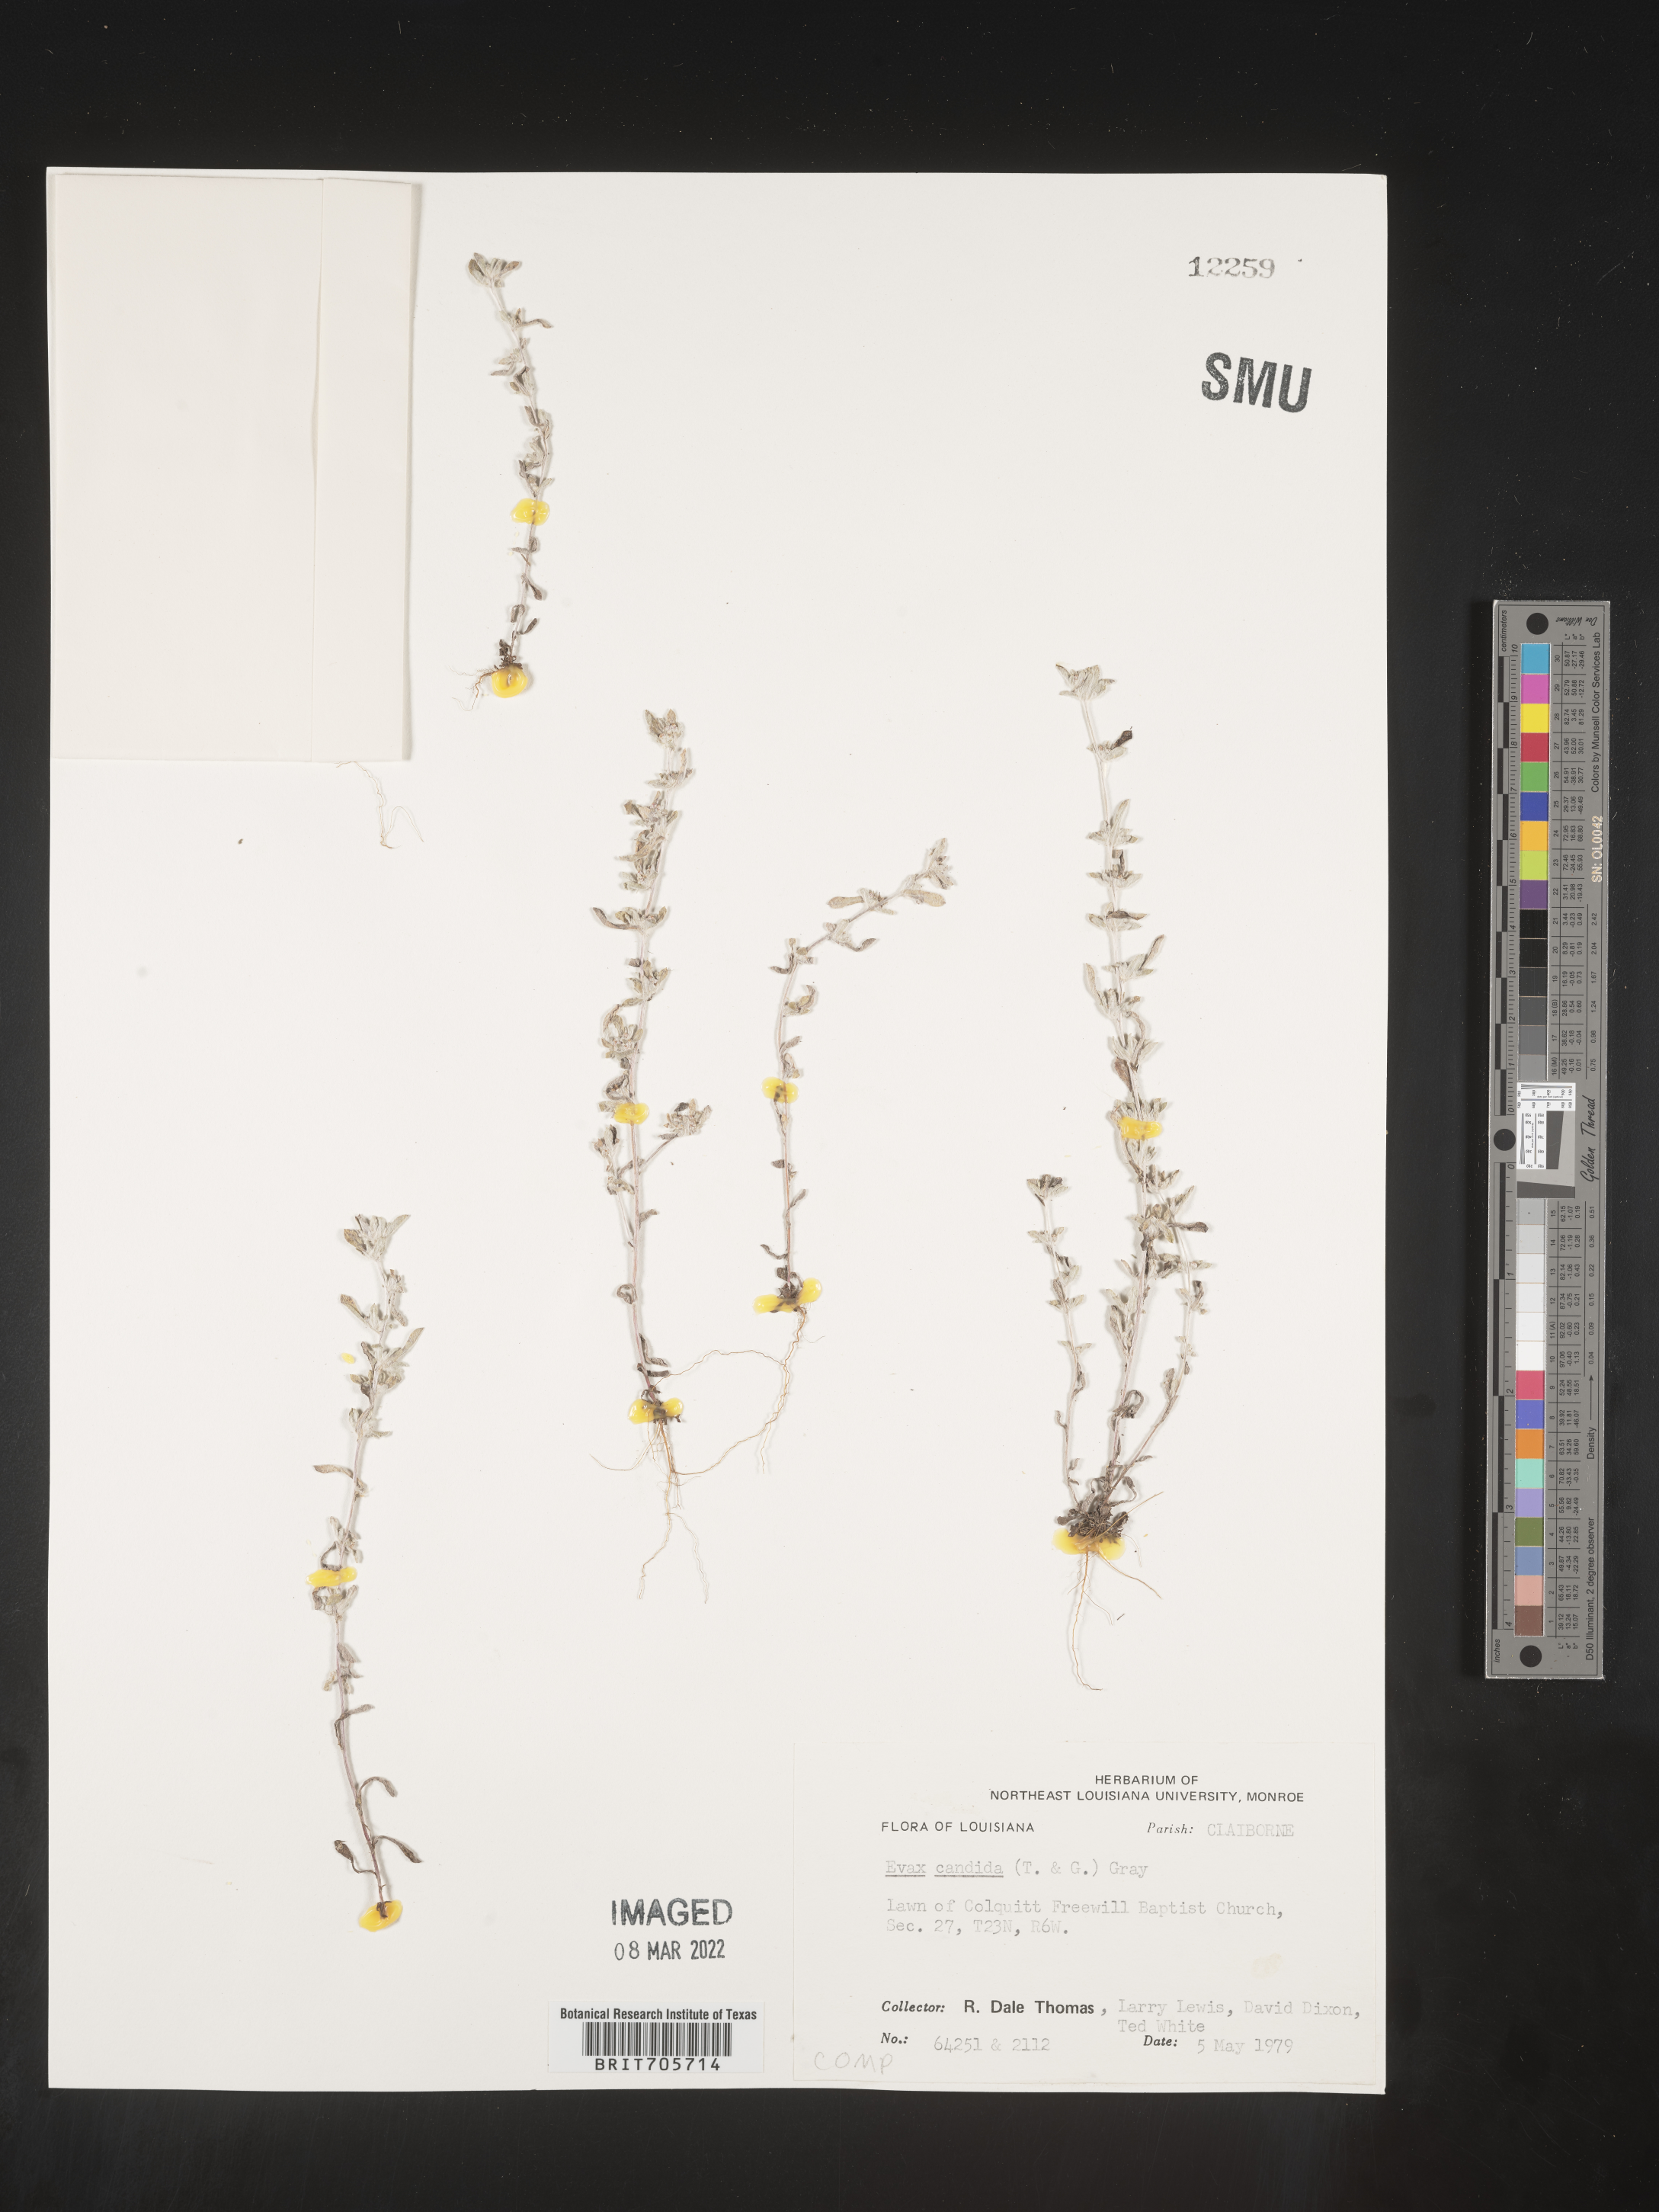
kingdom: Plantae
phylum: Tracheophyta
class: Magnoliopsida
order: Asterales
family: Asteraceae
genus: Diaperia
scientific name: Diaperia candida
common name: Silver rabbit-tobacco
